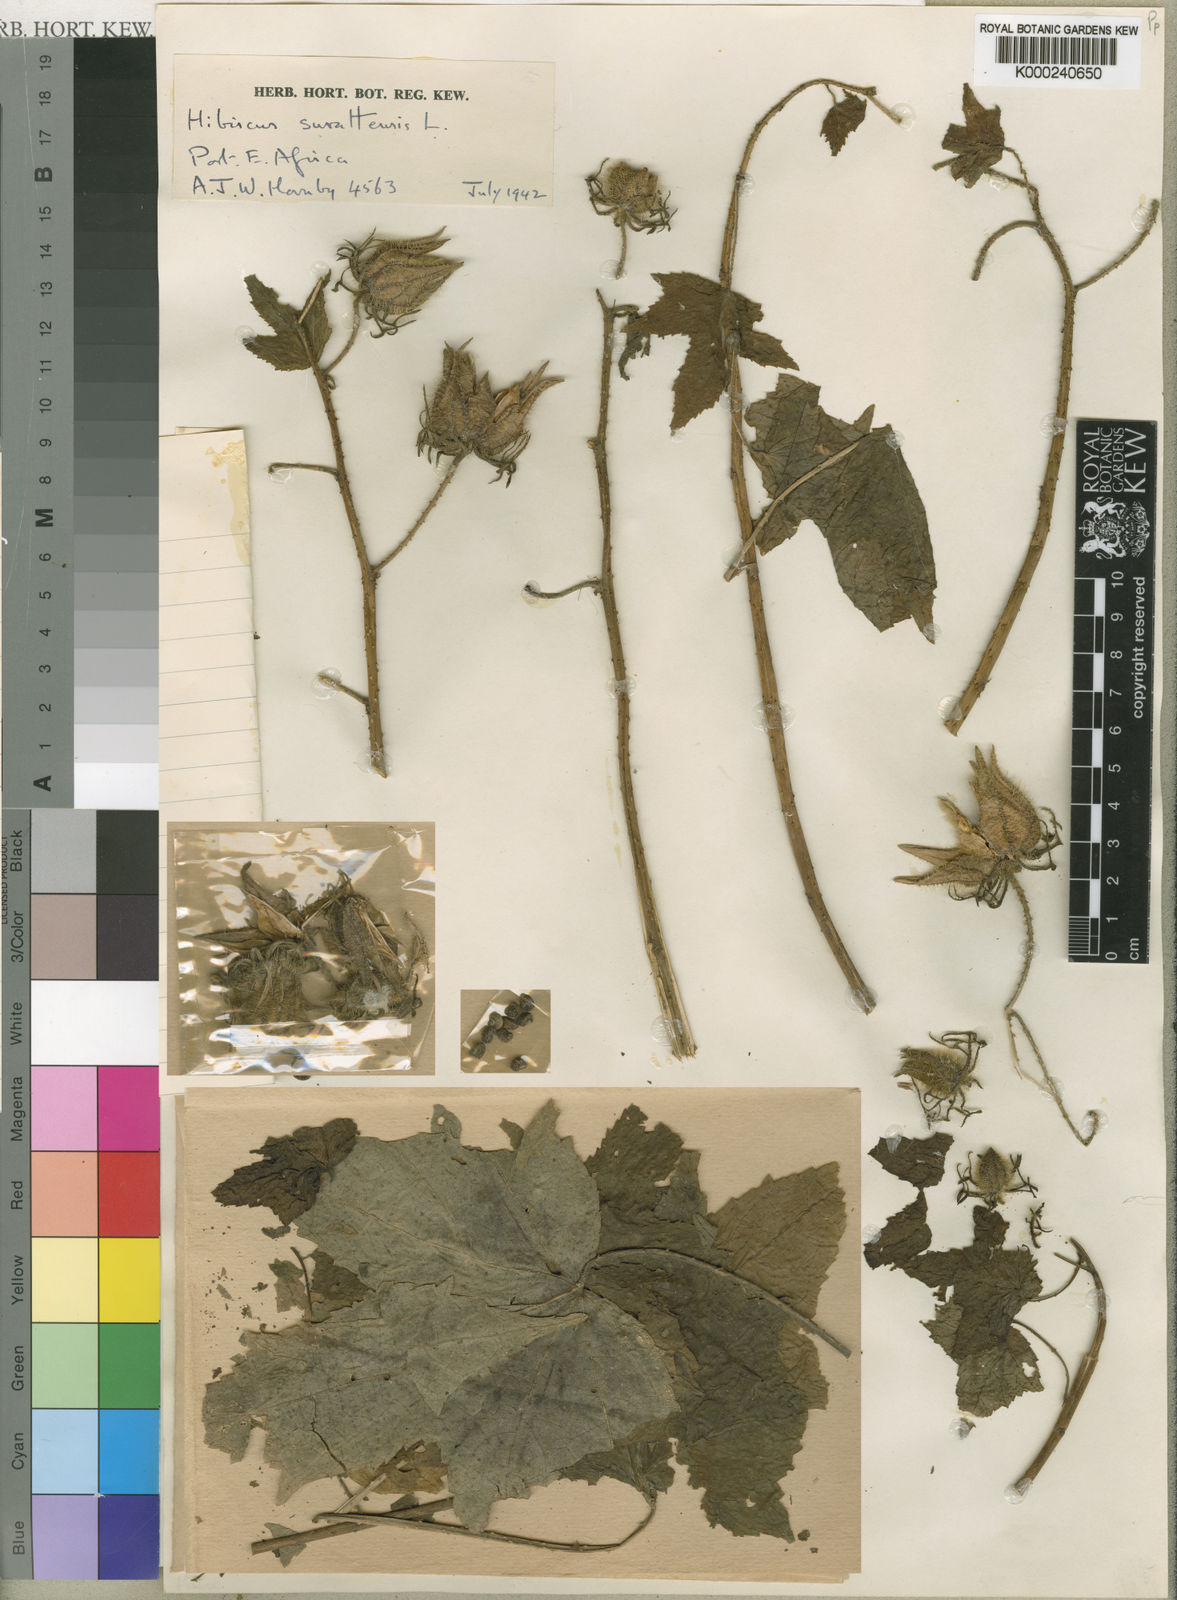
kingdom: Plantae
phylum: Tracheophyta
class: Magnoliopsida
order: Malvales
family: Malvaceae
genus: Hibiscus
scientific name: Hibiscus altissimus
